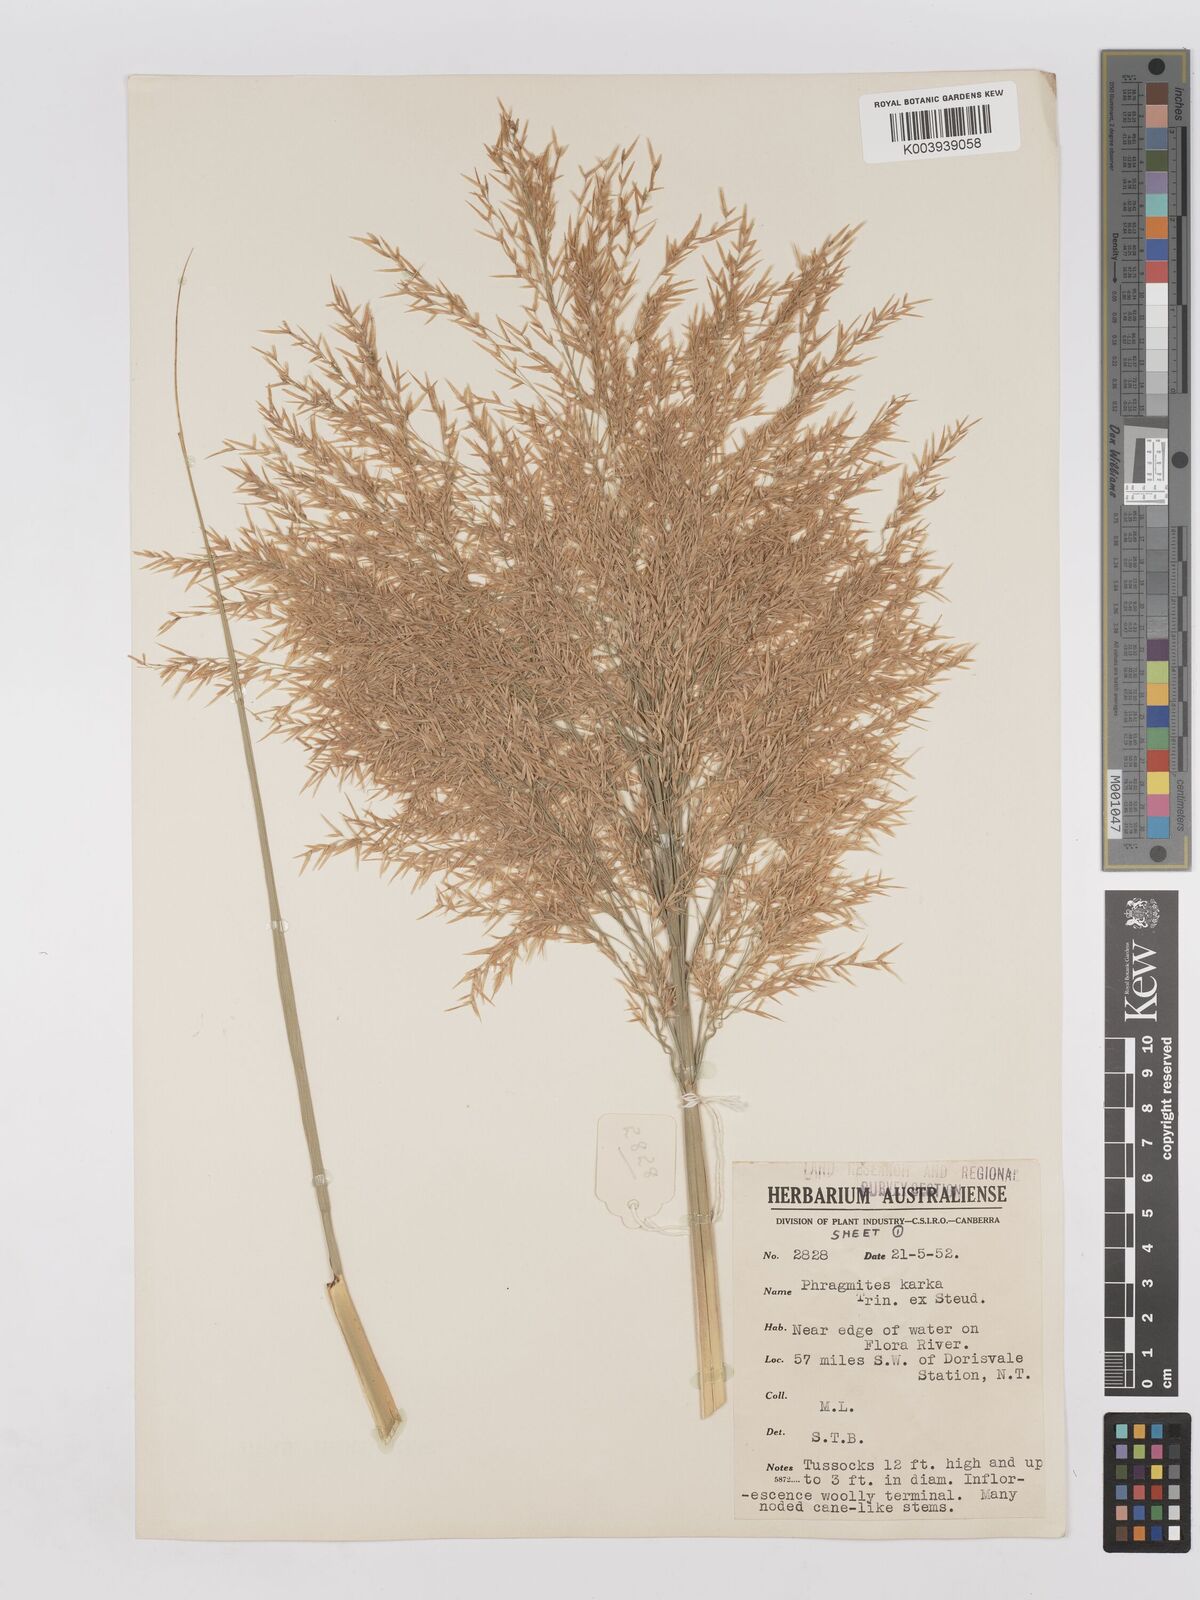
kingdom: Plantae
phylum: Tracheophyta
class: Liliopsida
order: Poales
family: Poaceae
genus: Phragmites
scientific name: Phragmites karka
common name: Tropical reed
